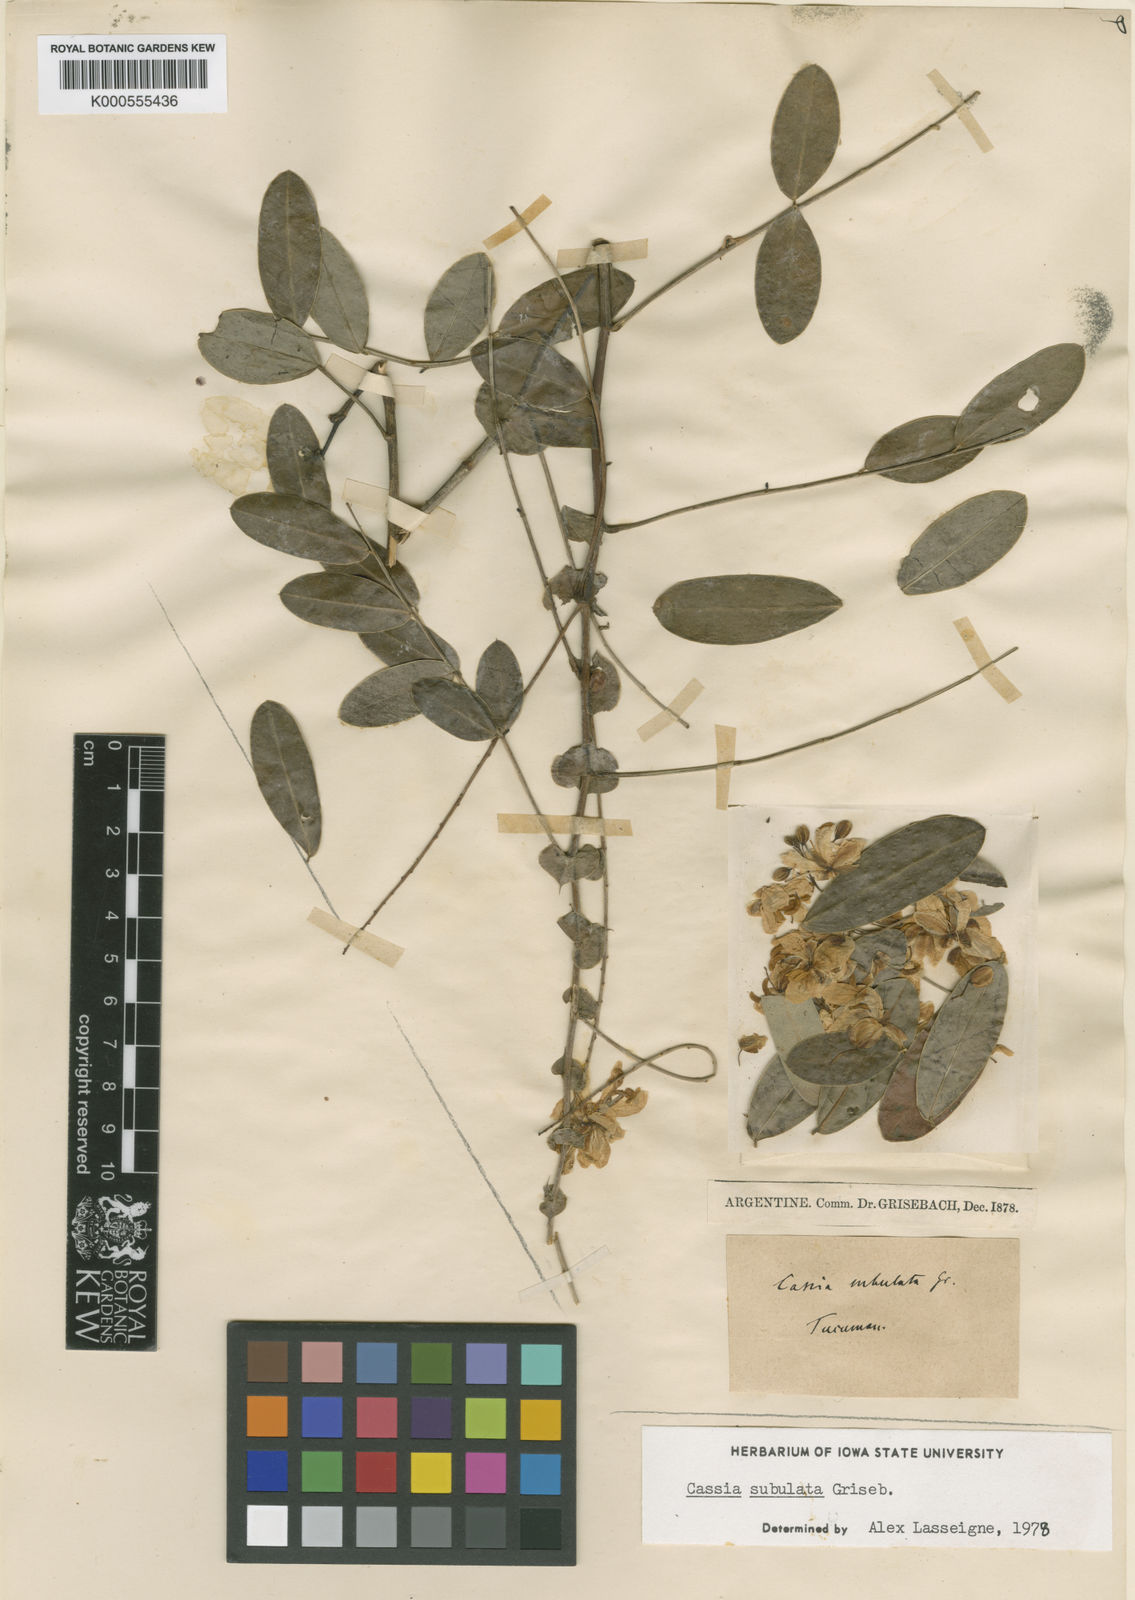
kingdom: Plantae
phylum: Tracheophyta
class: Magnoliopsida
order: Fabales
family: Fabaceae
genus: Senna
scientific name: Senna subulata
